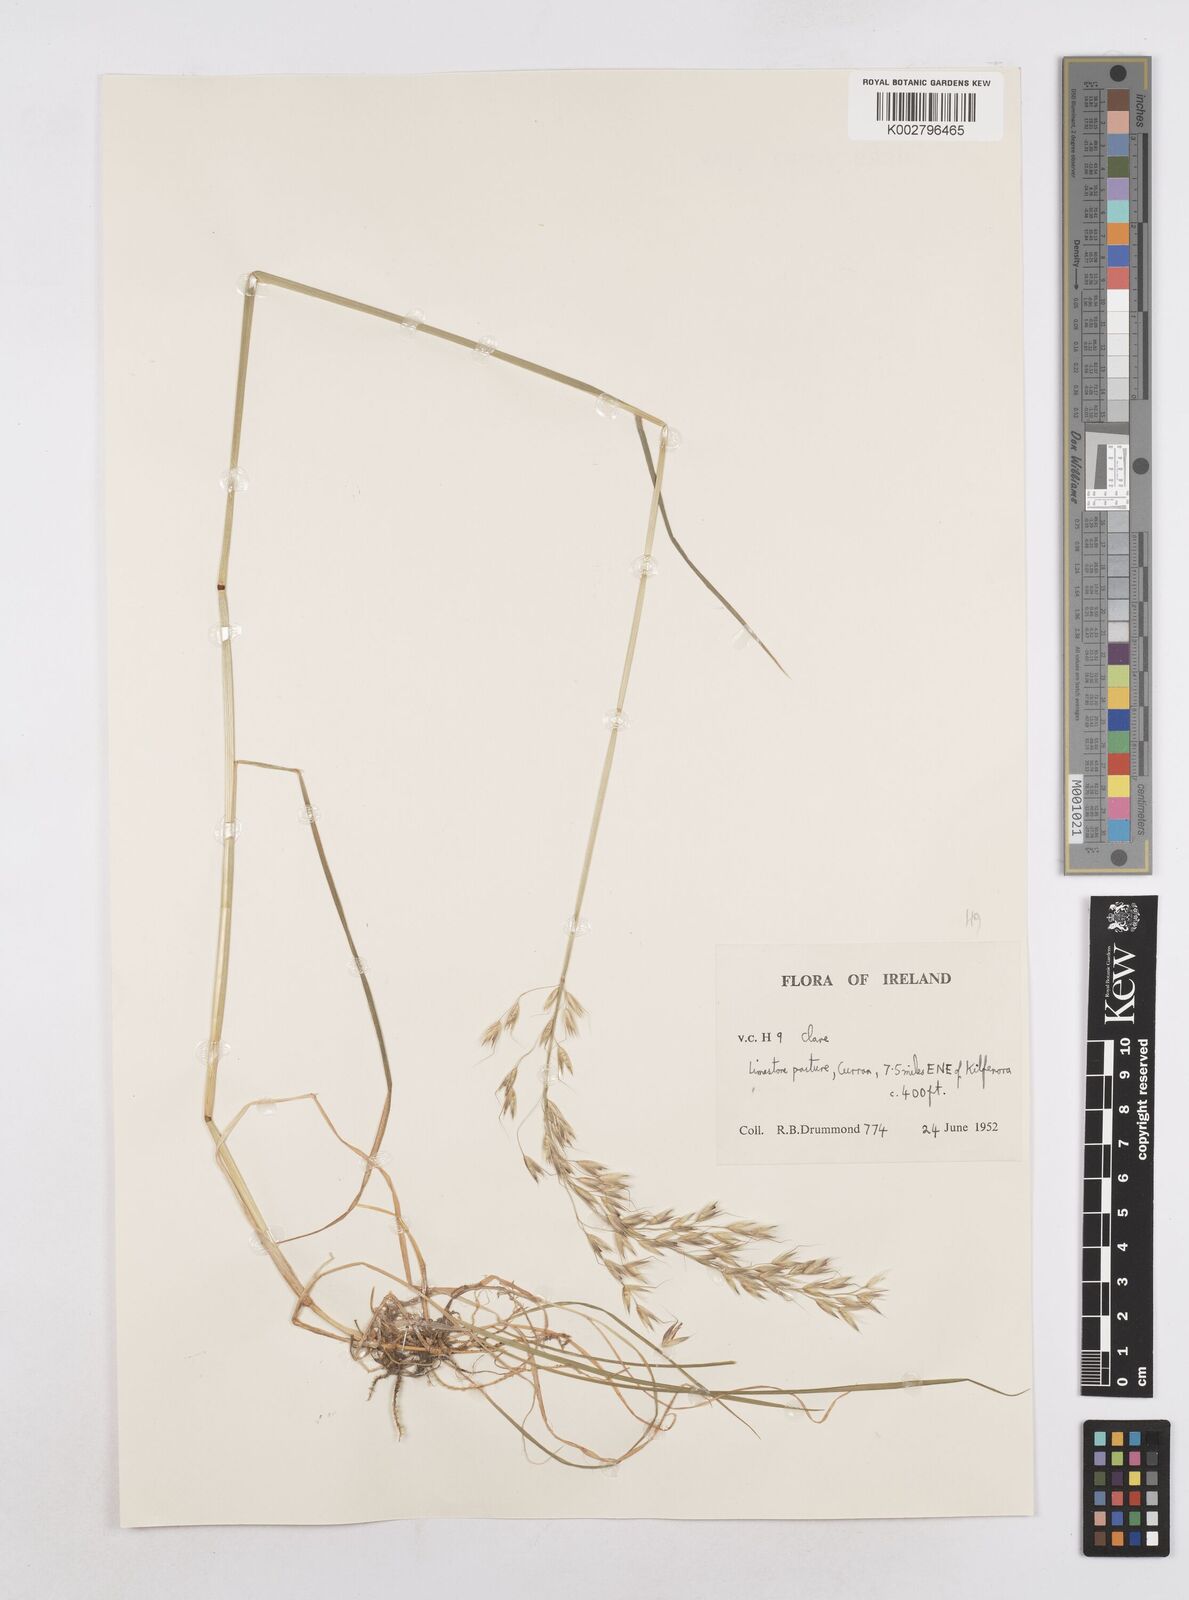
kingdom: Plantae
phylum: Tracheophyta
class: Liliopsida
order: Poales
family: Poaceae
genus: Arrhenatherum
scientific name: Arrhenatherum elatius
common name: Tall oatgrass
